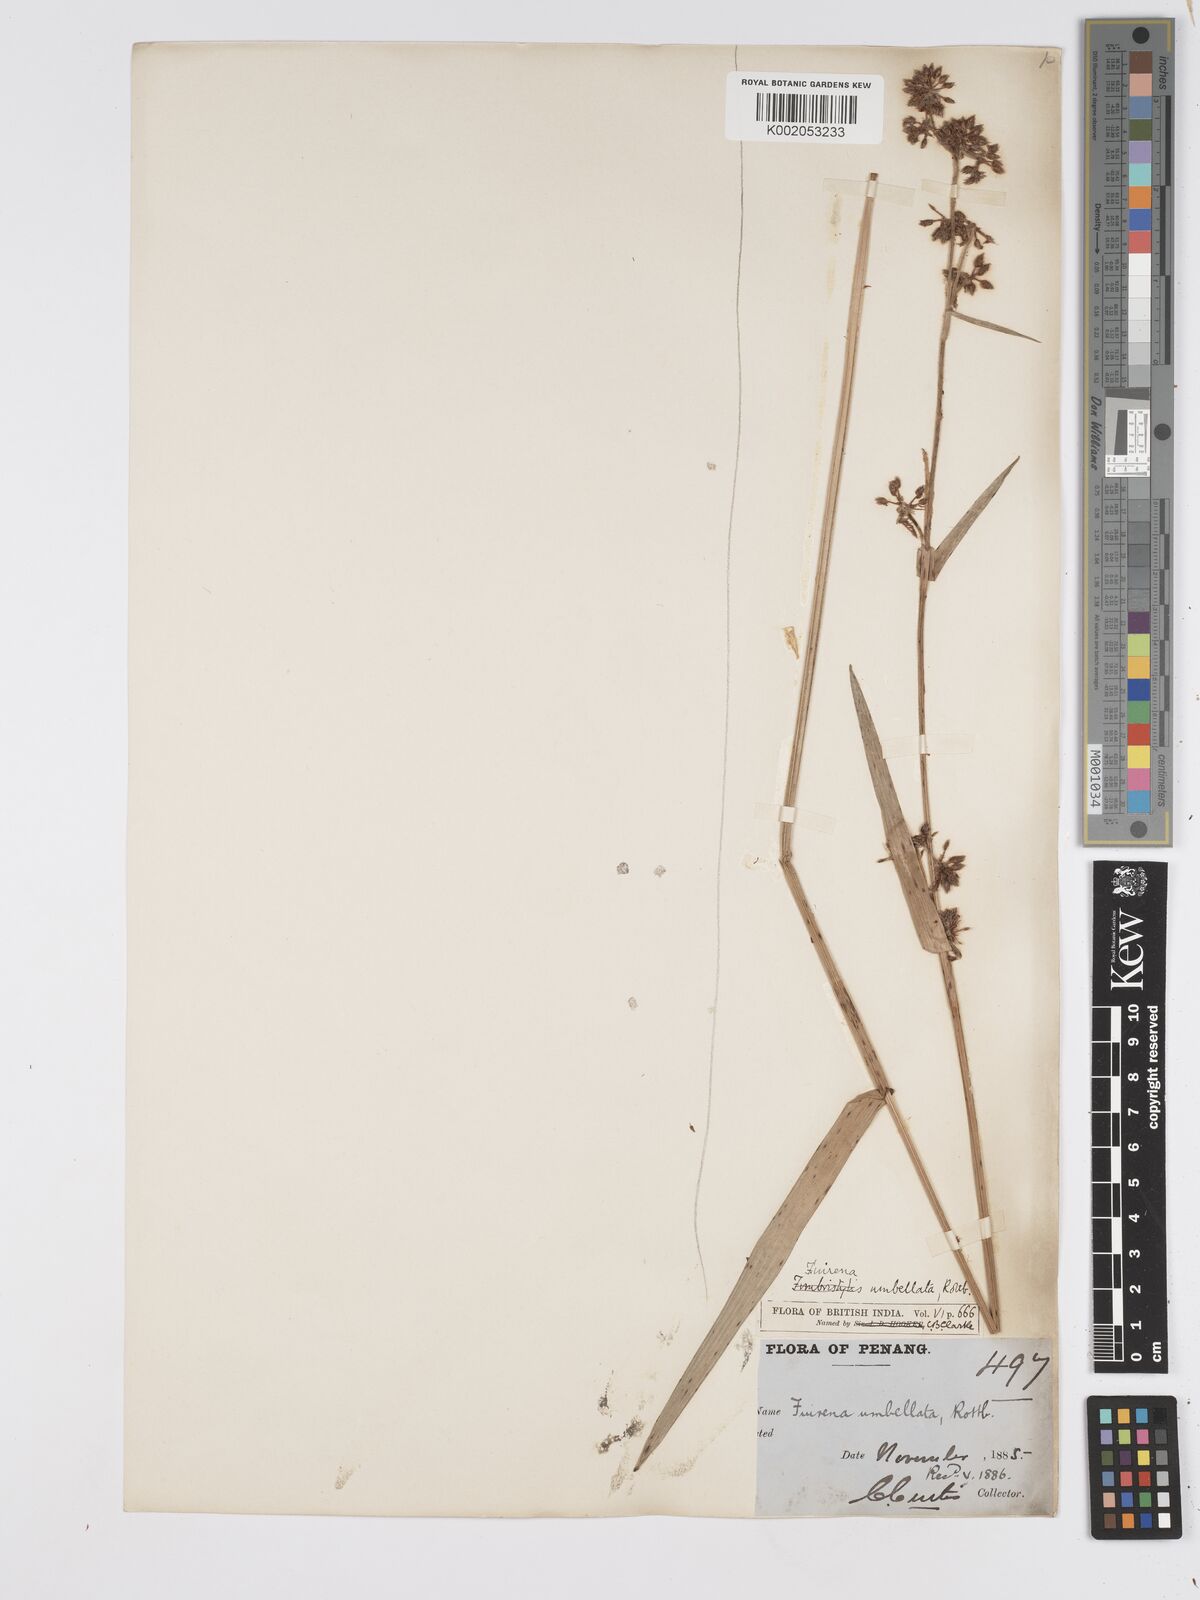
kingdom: Plantae
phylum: Tracheophyta
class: Liliopsida
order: Poales
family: Cyperaceae
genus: Fuirena
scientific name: Fuirena umbellata
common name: Yefen
